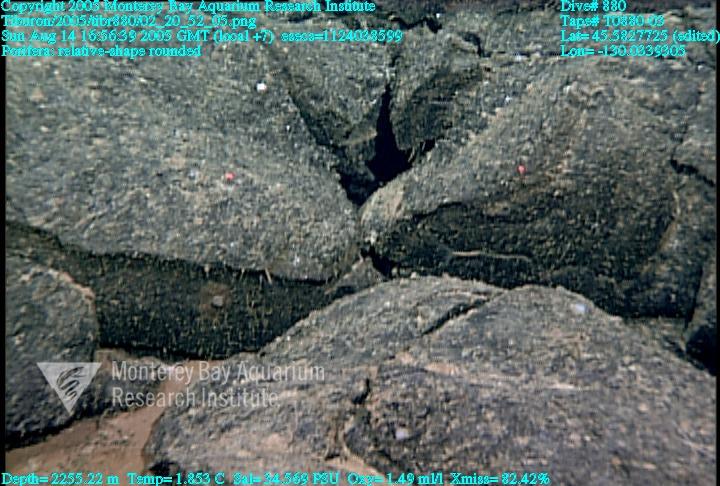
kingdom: Animalia
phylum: Porifera
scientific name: Porifera
